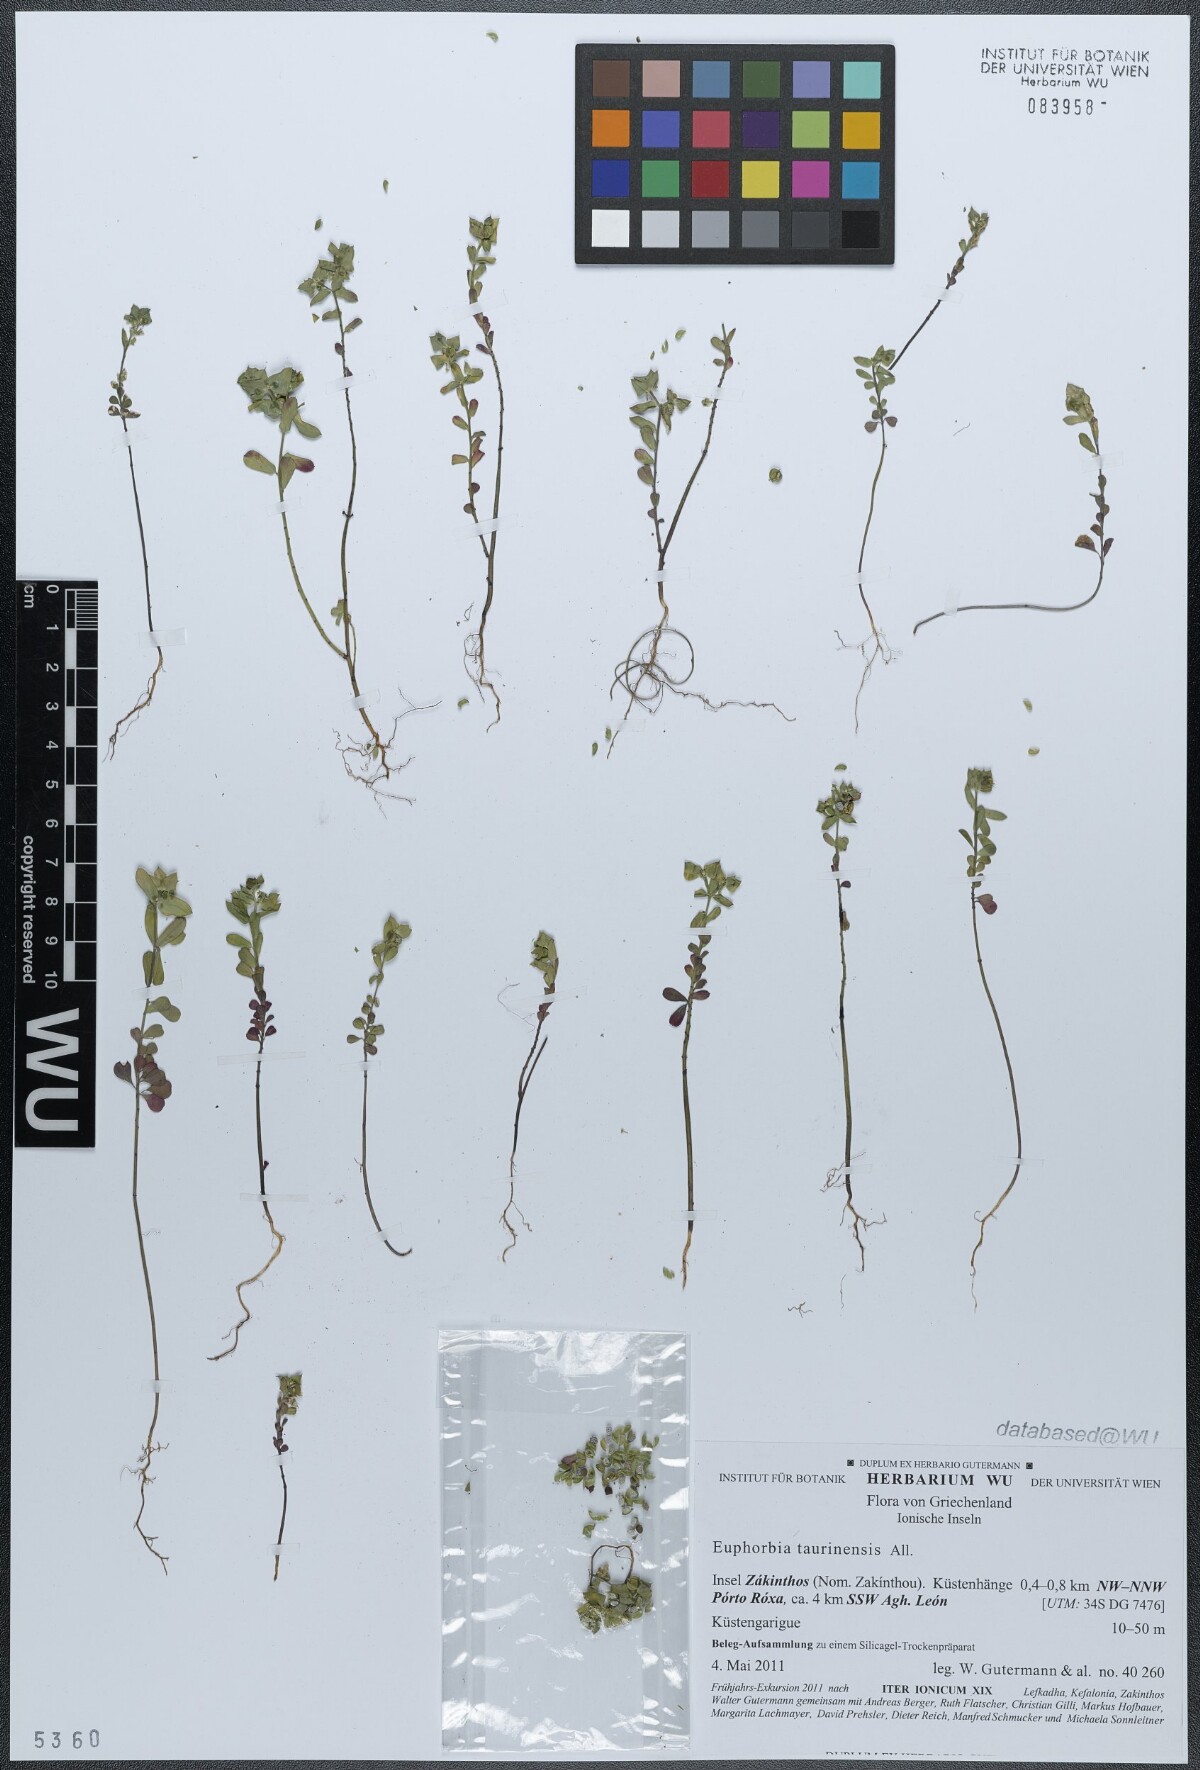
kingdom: Plantae
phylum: Tracheophyta
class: Magnoliopsida
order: Malpighiales
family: Euphorbiaceae
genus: Euphorbia
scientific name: Euphorbia taurinensis
